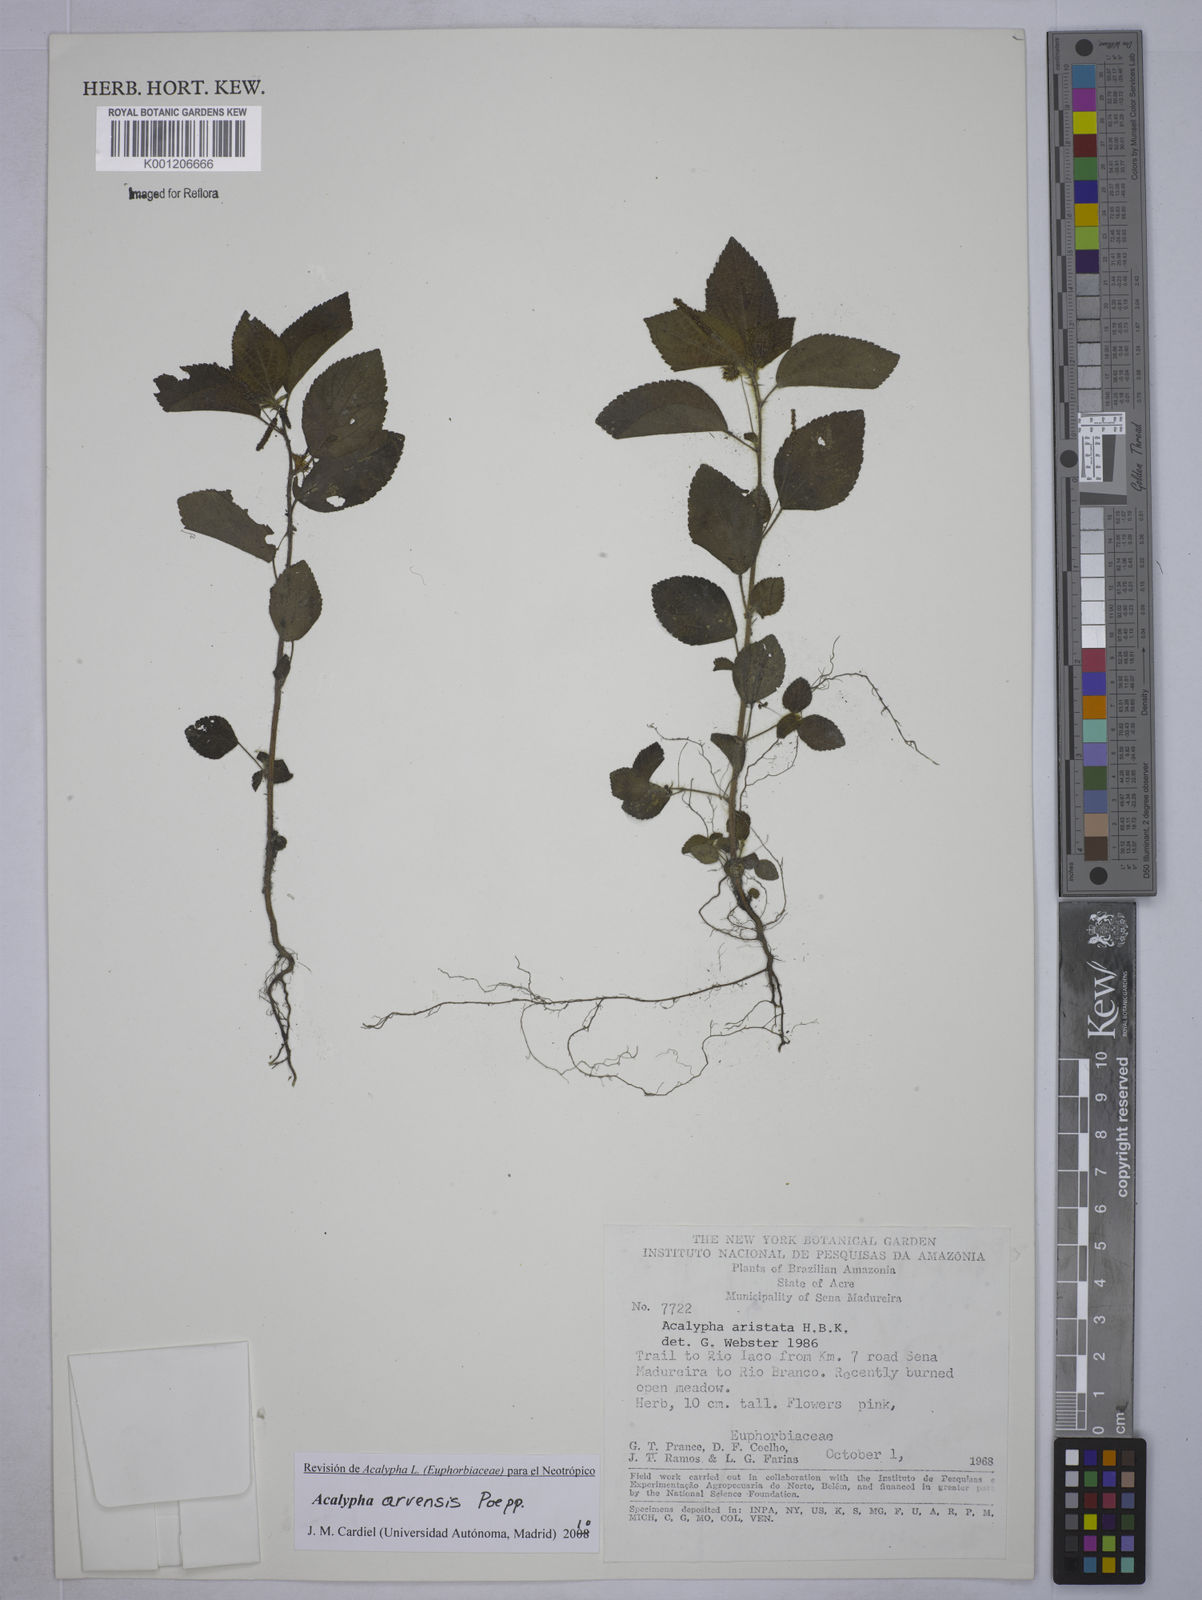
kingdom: Plantae
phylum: Tracheophyta
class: Magnoliopsida
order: Malpighiales
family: Euphorbiaceae
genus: Acalypha
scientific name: Acalypha arvensis
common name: Field copperleaf
